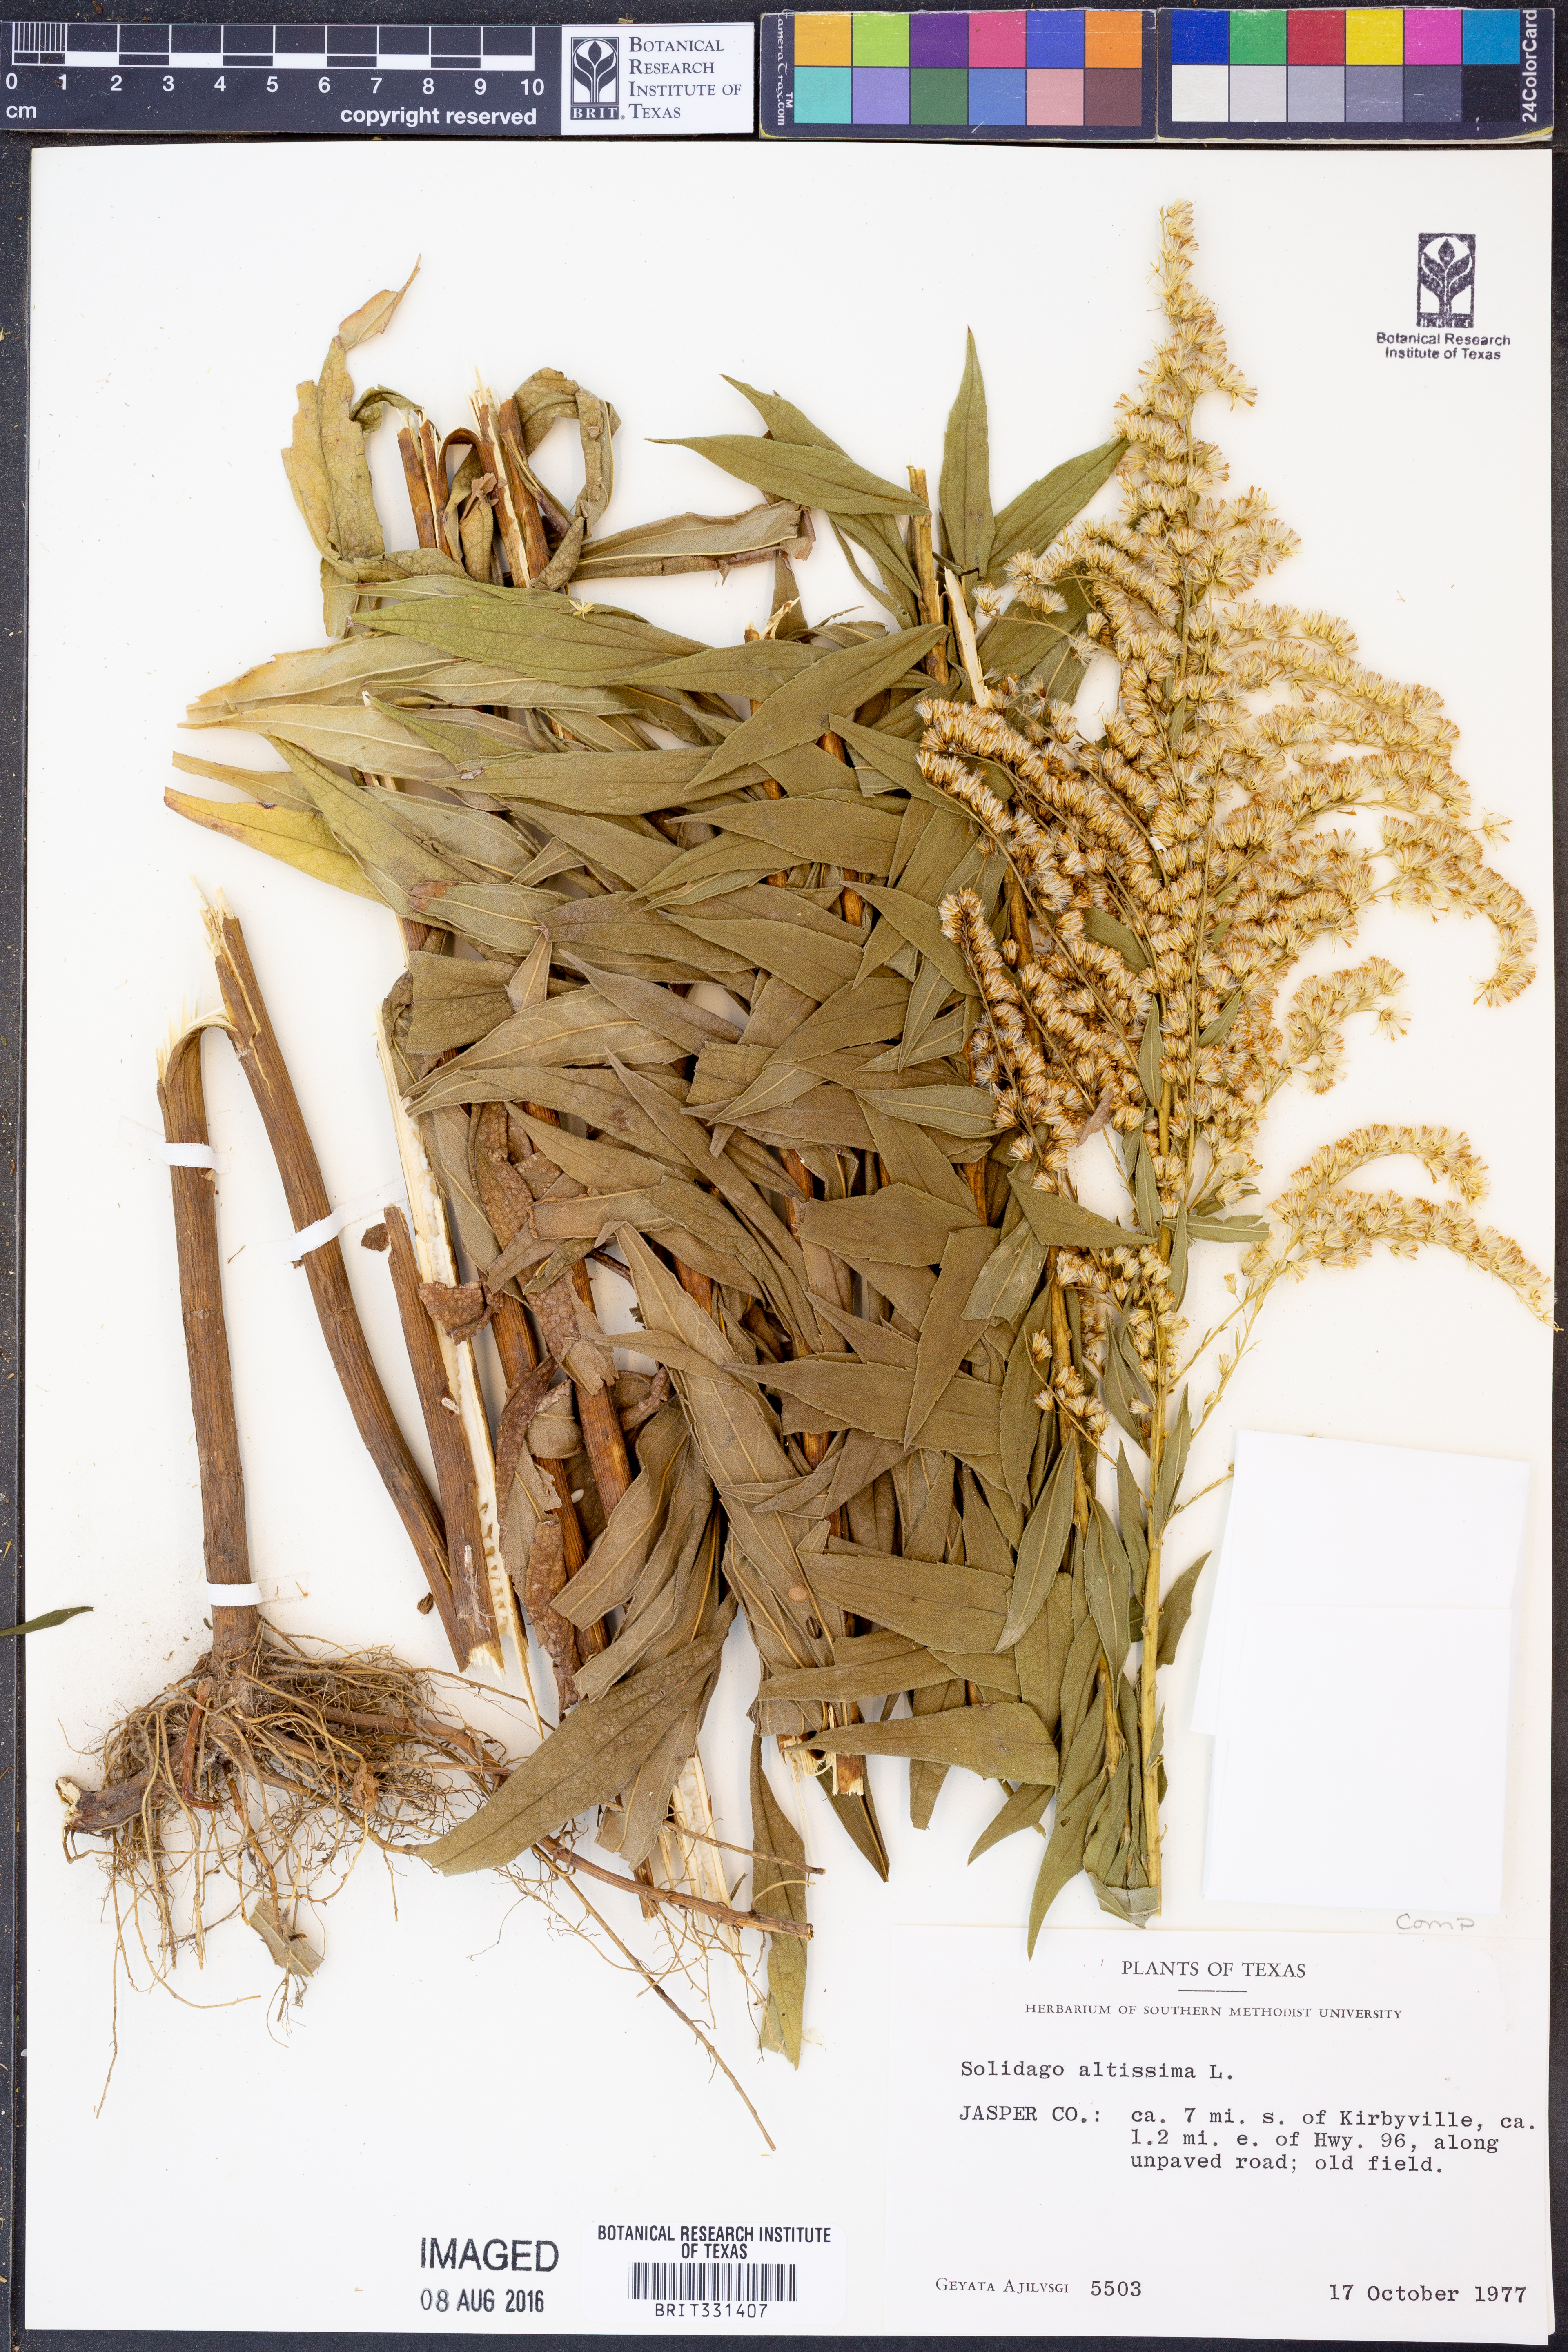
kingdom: Plantae
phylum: Tracheophyta
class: Magnoliopsida
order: Asterales
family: Asteraceae
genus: Solidago
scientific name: Solidago altissima
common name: Late goldenrod
